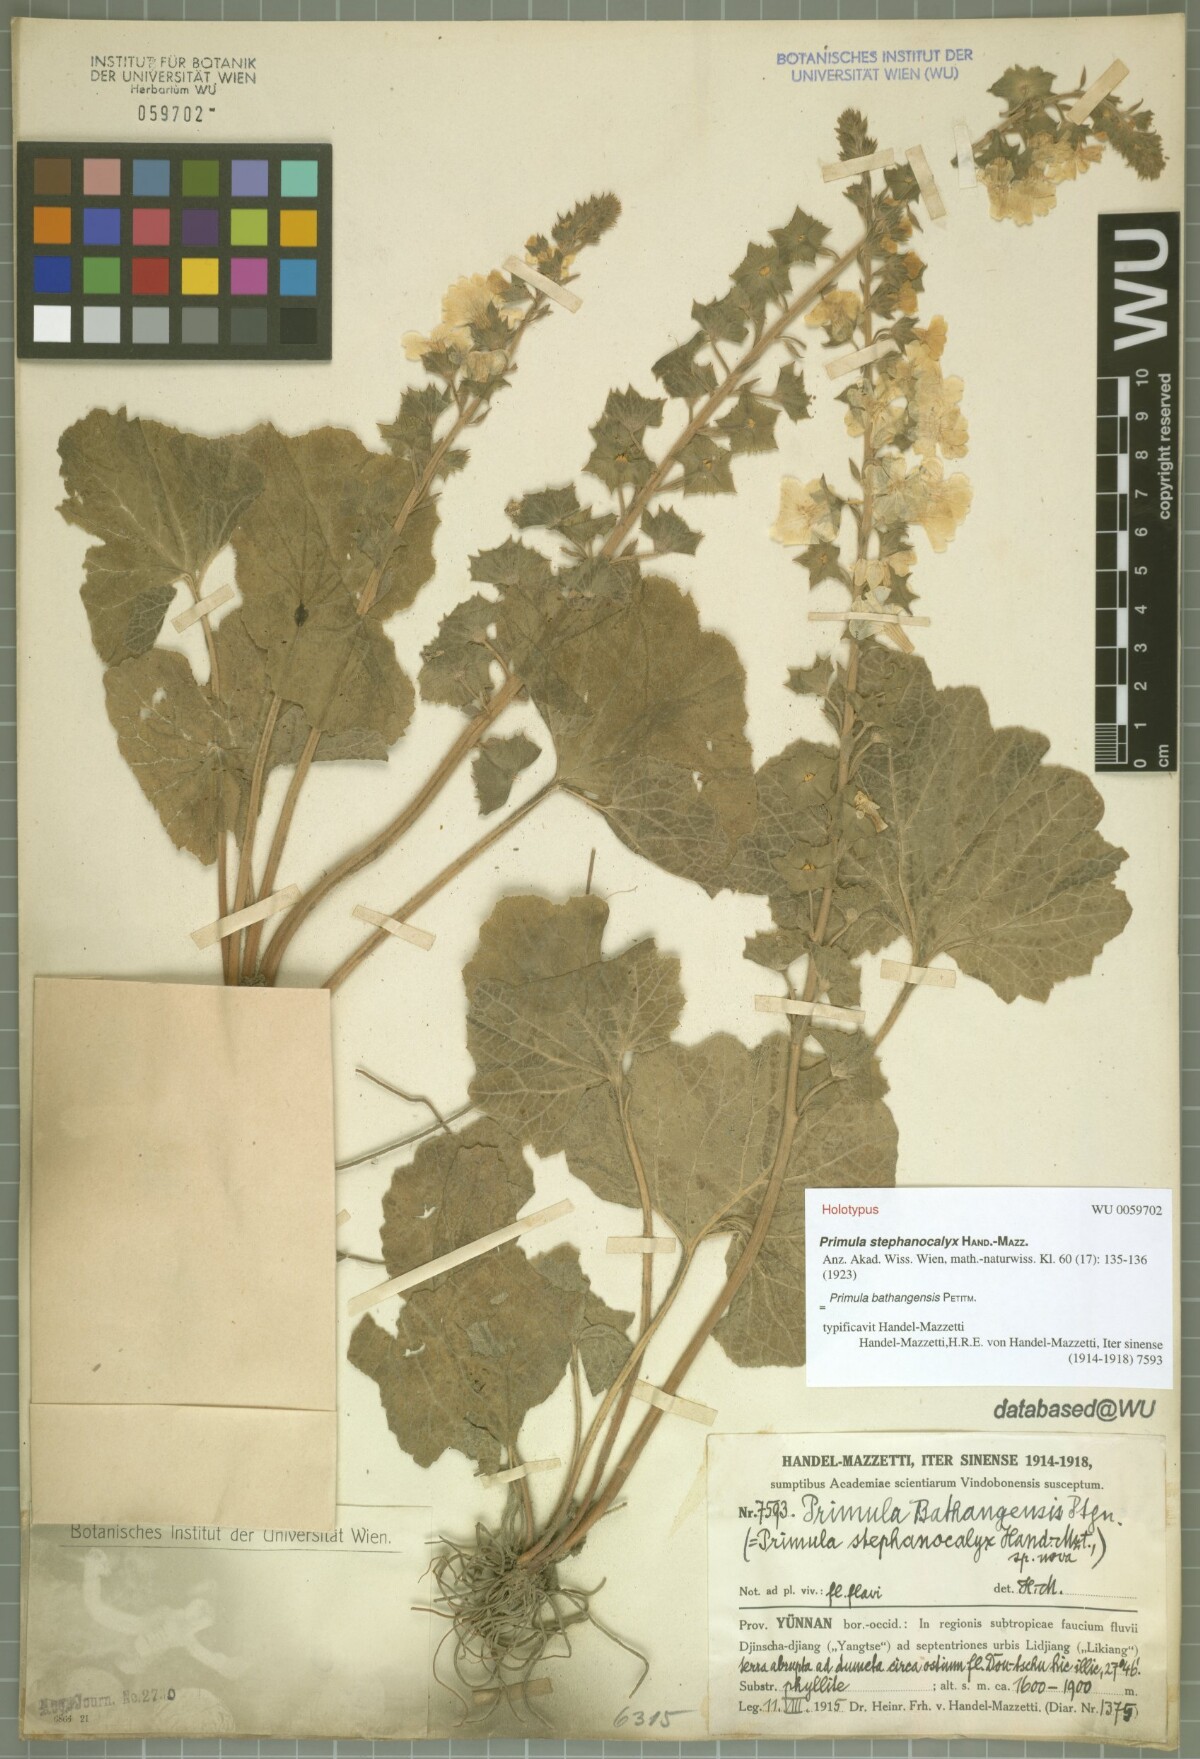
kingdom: Plantae
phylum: Tracheophyta
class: Magnoliopsida
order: Ericales
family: Primulaceae
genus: Primula
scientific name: Primula bathangensis
